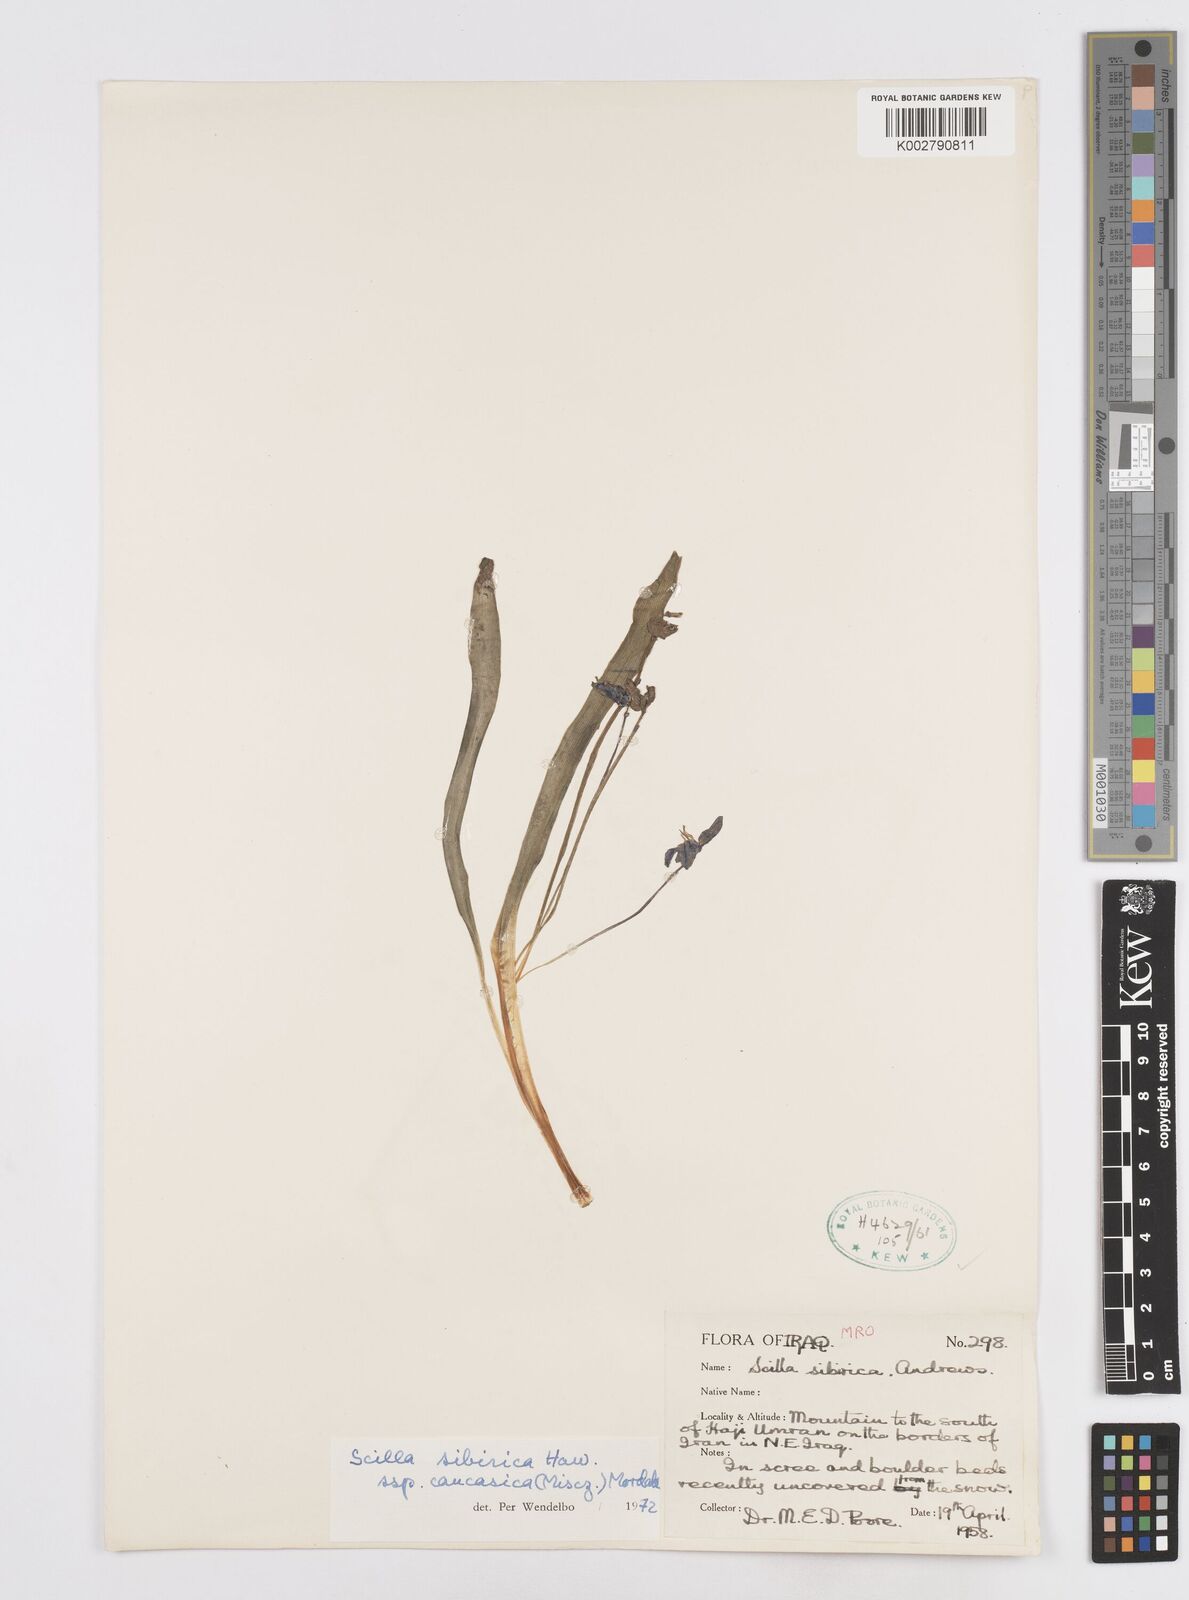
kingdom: Plantae
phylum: Tracheophyta
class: Liliopsida
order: Asparagales
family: Asparagaceae
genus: Scilla
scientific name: Scilla siberica
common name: Siberian squill
